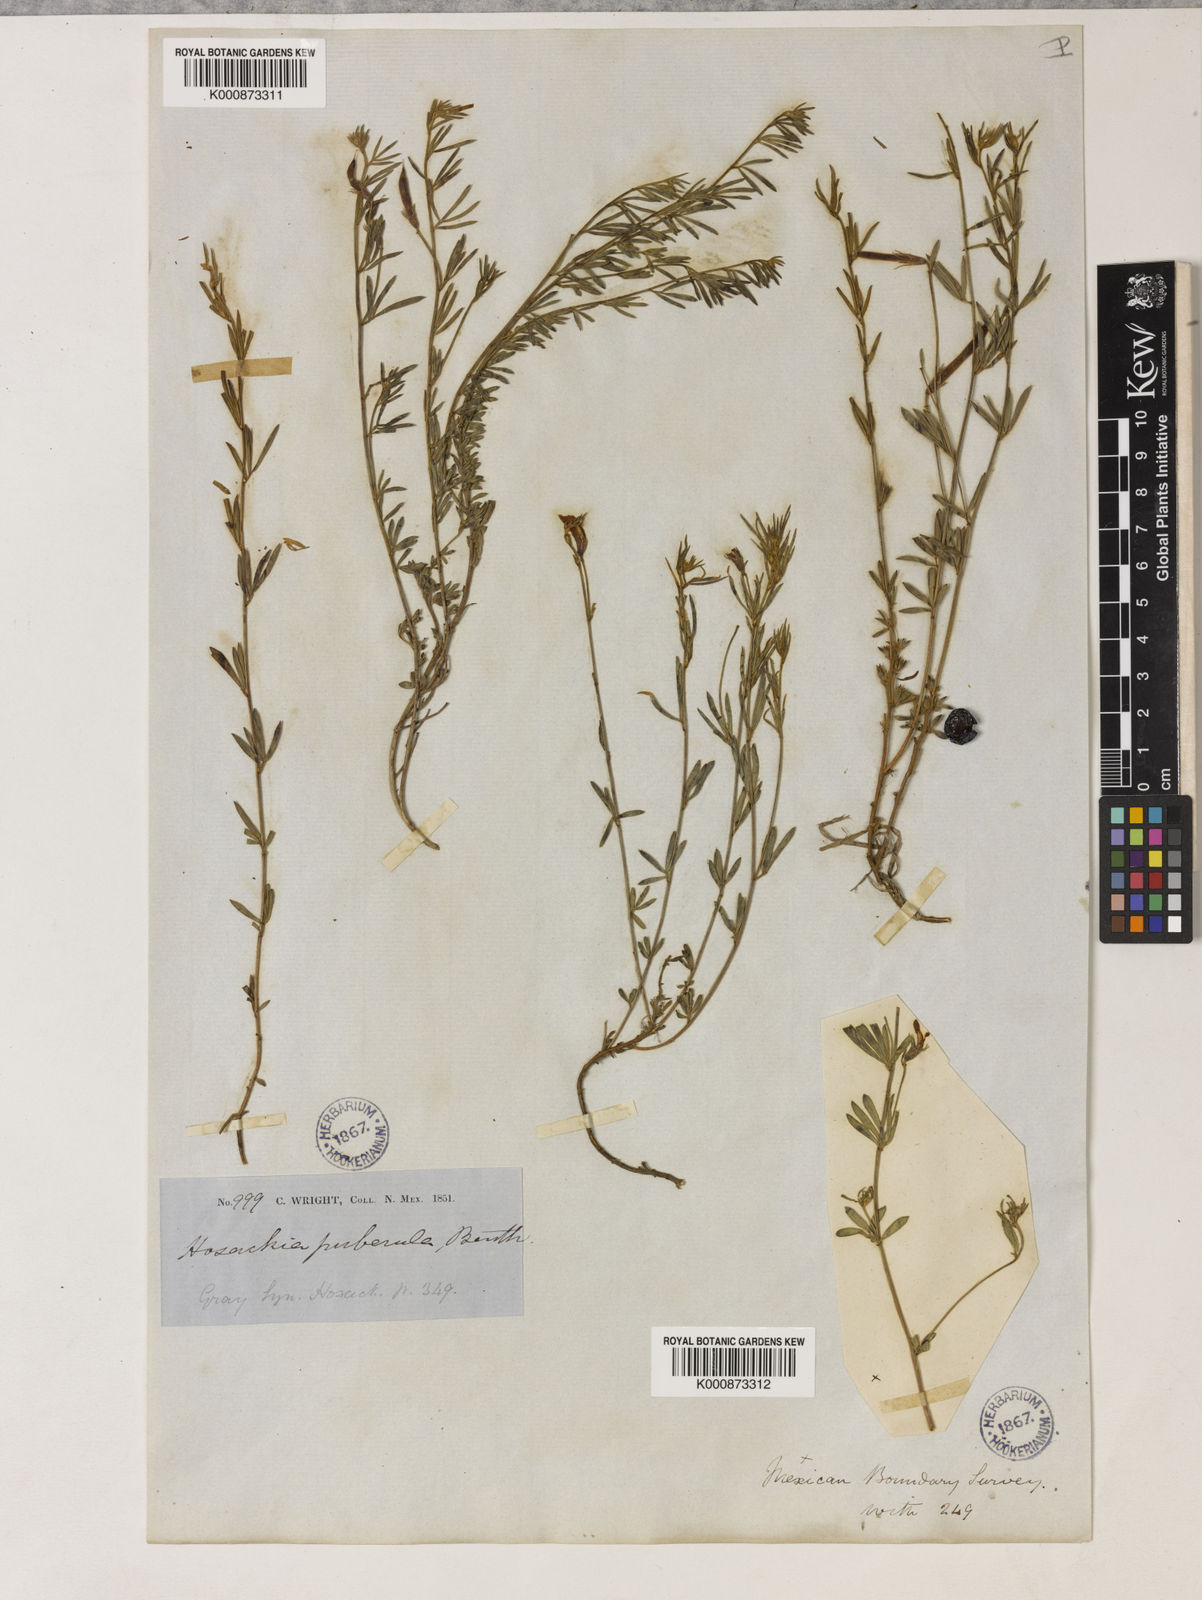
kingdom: Plantae
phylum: Tracheophyta
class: Magnoliopsida
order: Fabales
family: Fabaceae
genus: Acmispon
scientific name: Acmispon oroboides
